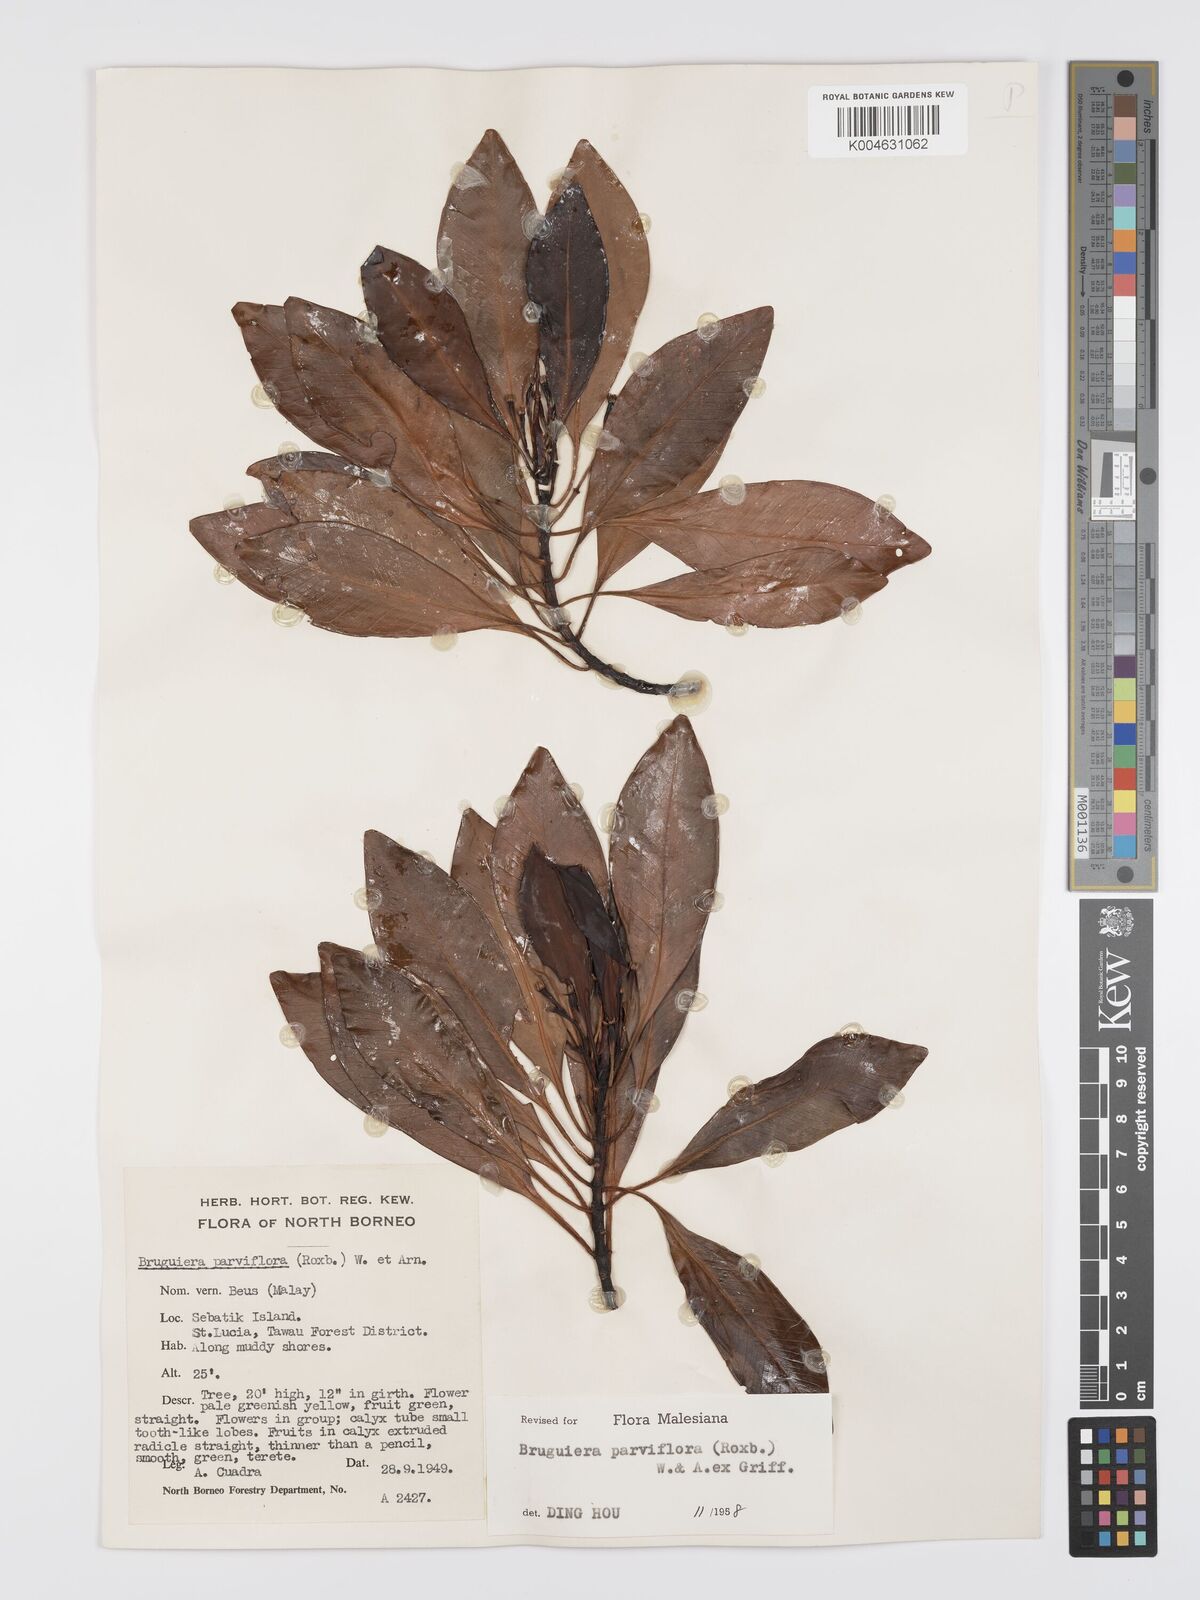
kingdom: Plantae
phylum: Tracheophyta
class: Magnoliopsida
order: Malpighiales
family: Rhizophoraceae
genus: Bruguiera
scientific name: Bruguiera parviflora
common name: Smallflower bruguiera
